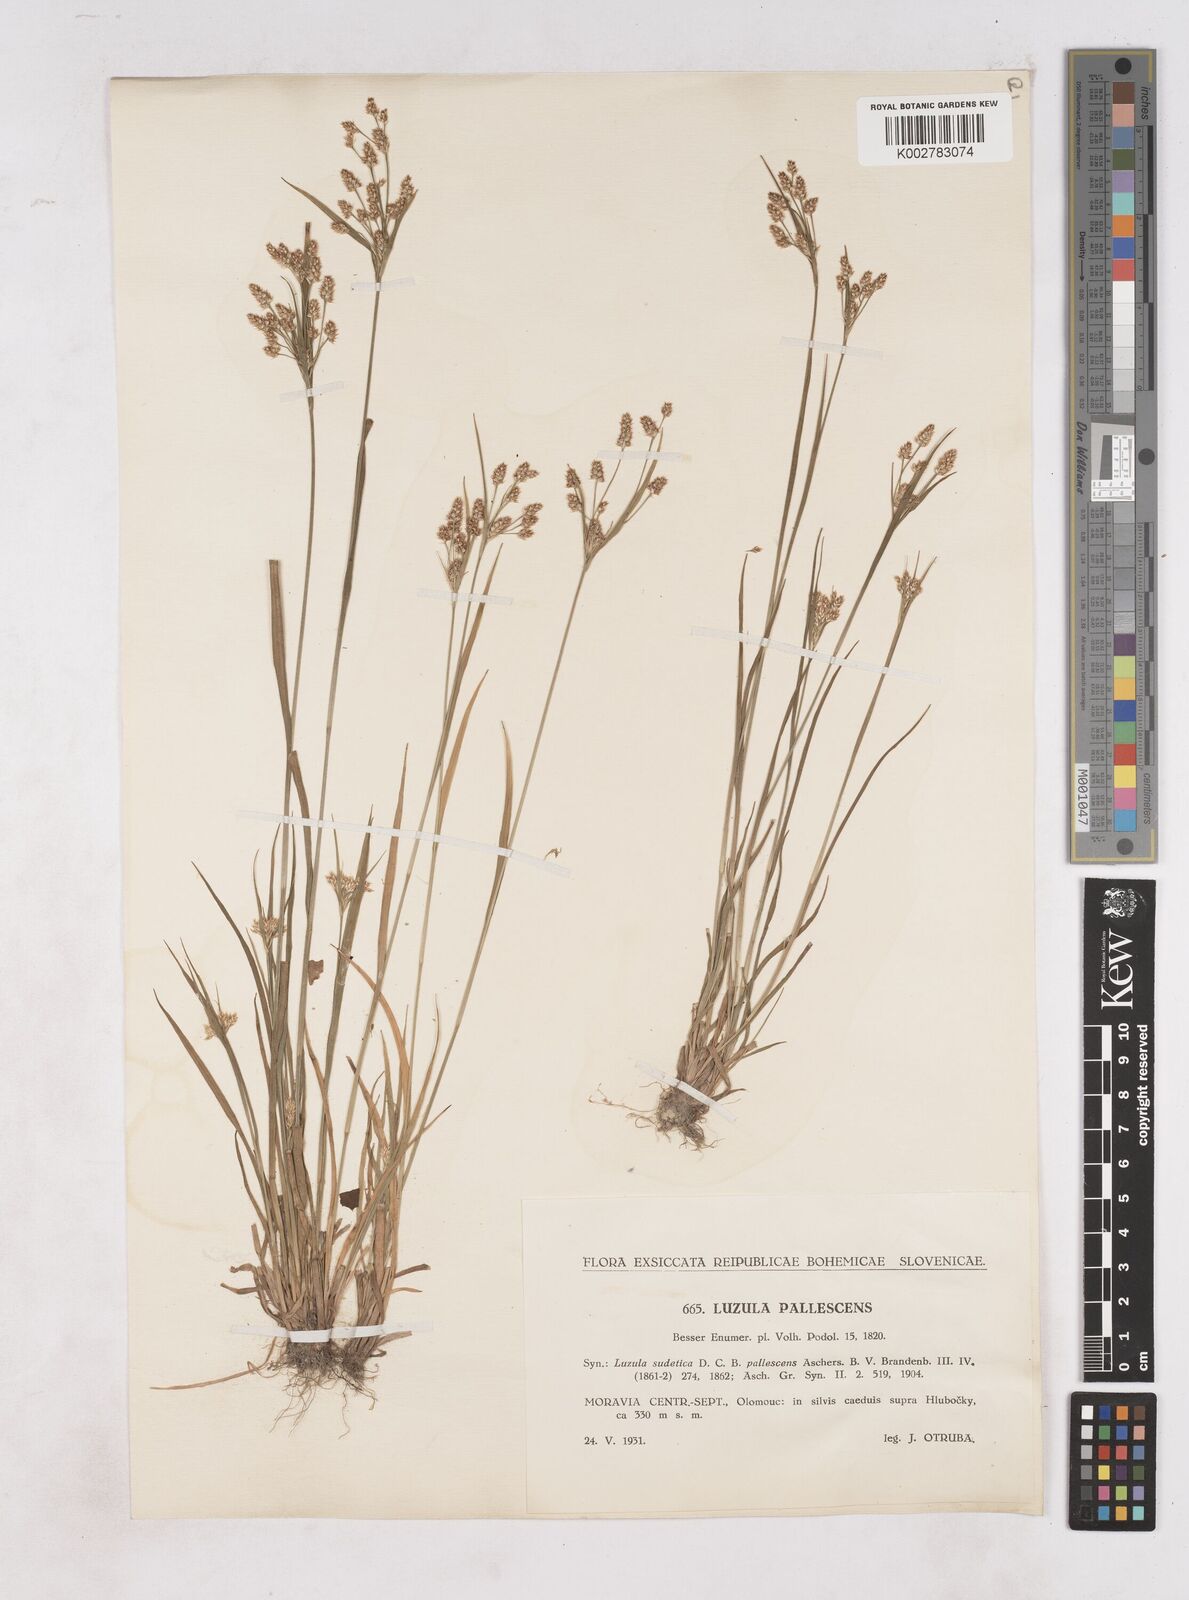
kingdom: Plantae
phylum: Tracheophyta
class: Liliopsida
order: Poales
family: Juncaceae
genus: Luzula
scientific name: Luzula pallescens
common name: Fen wood-rush
